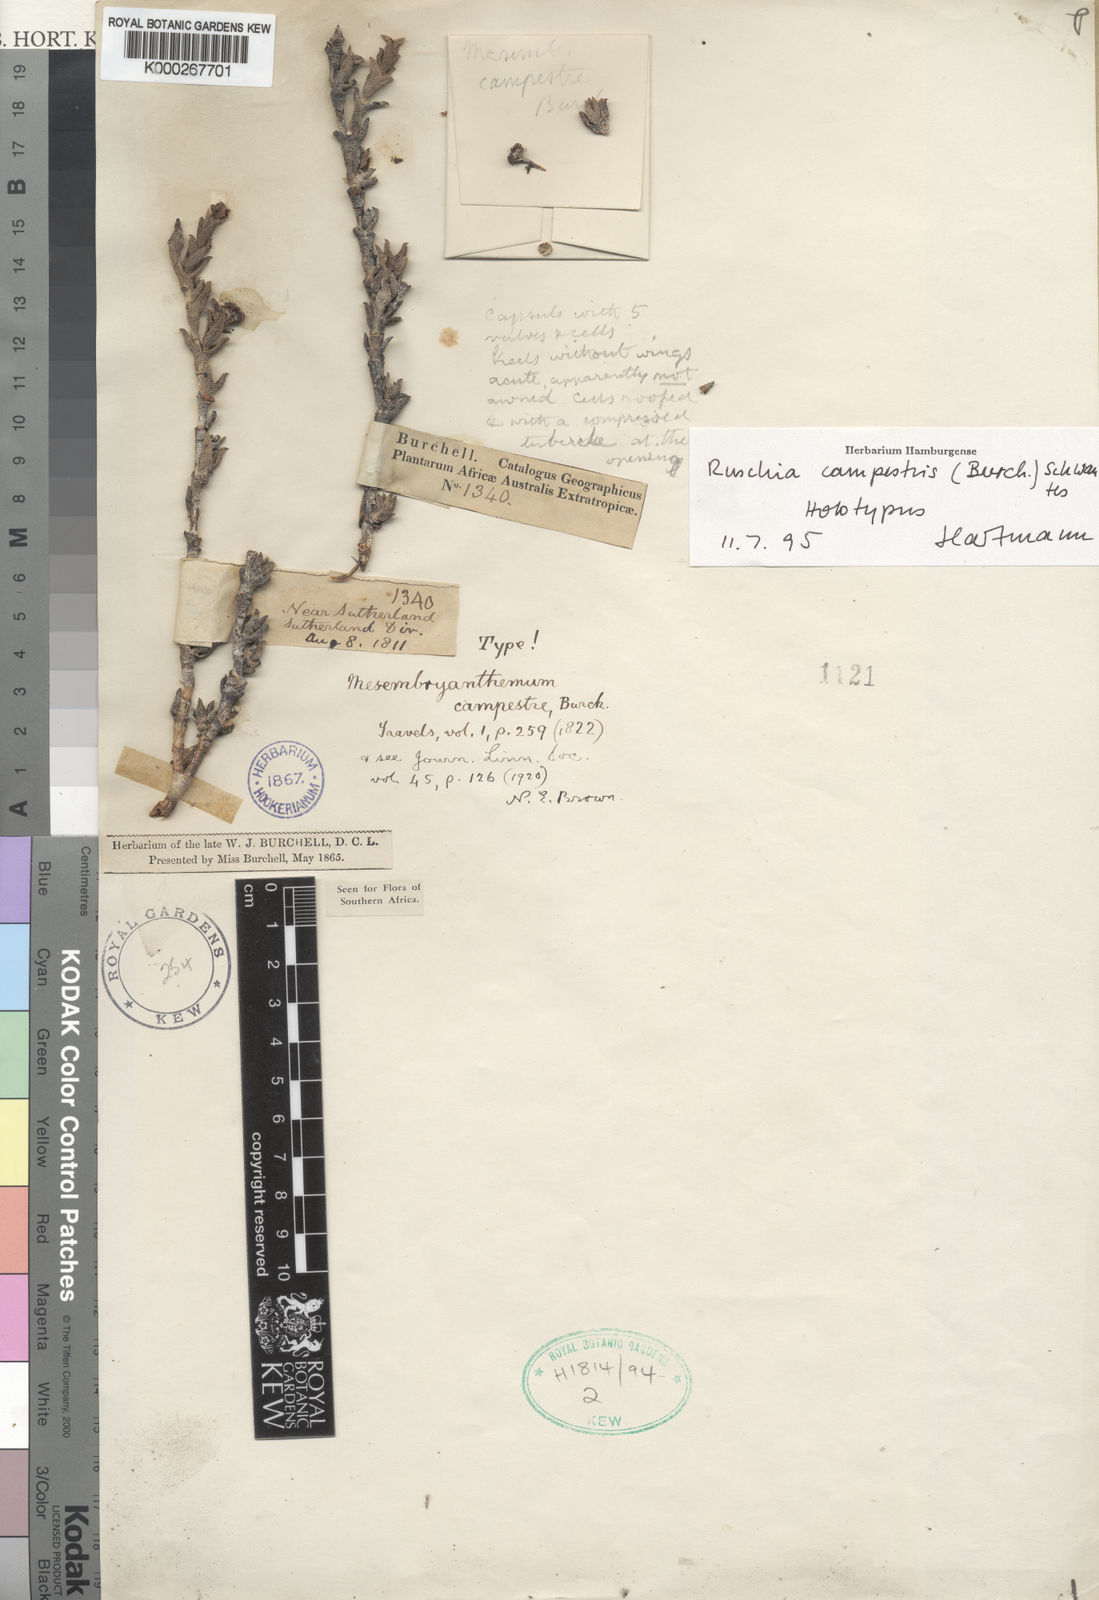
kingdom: Plantae
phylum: Tracheophyta
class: Magnoliopsida
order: Caryophyllales
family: Aizoaceae
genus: Ruschia
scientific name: Ruschia campestris
